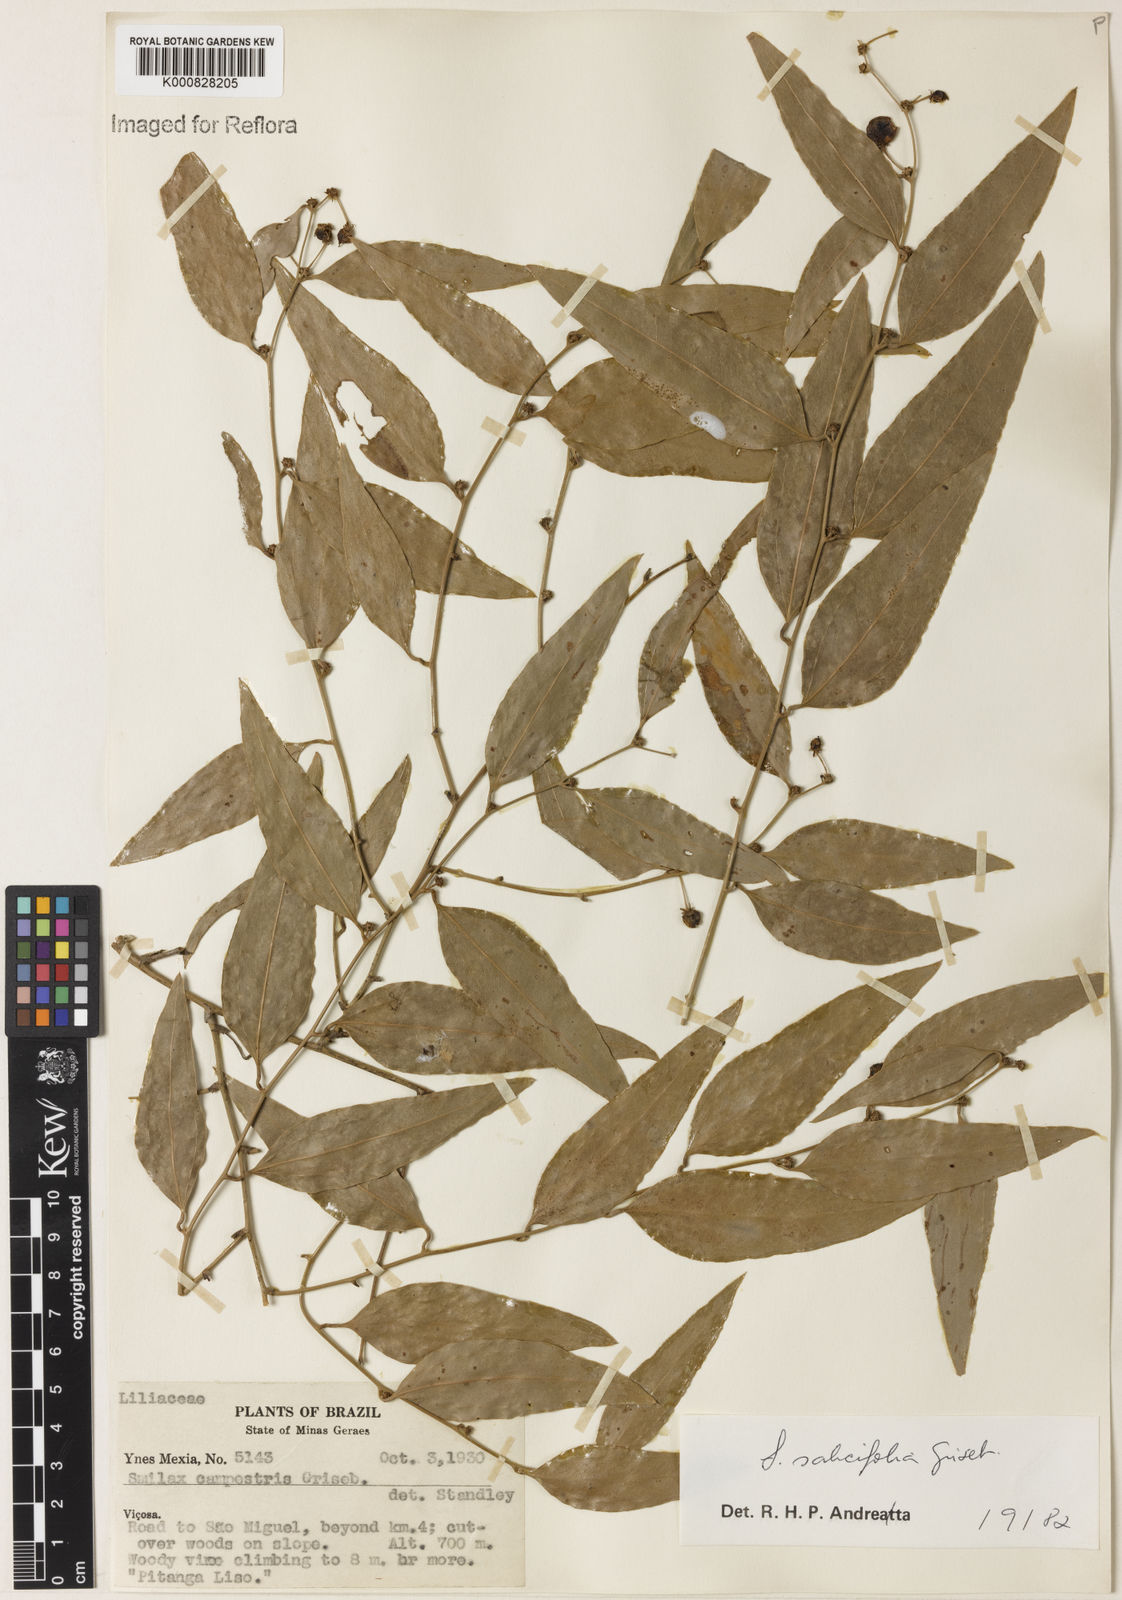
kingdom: Plantae
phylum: Tracheophyta
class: Liliopsida
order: Liliales
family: Smilacaceae
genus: Smilax
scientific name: Smilax salicifolia
